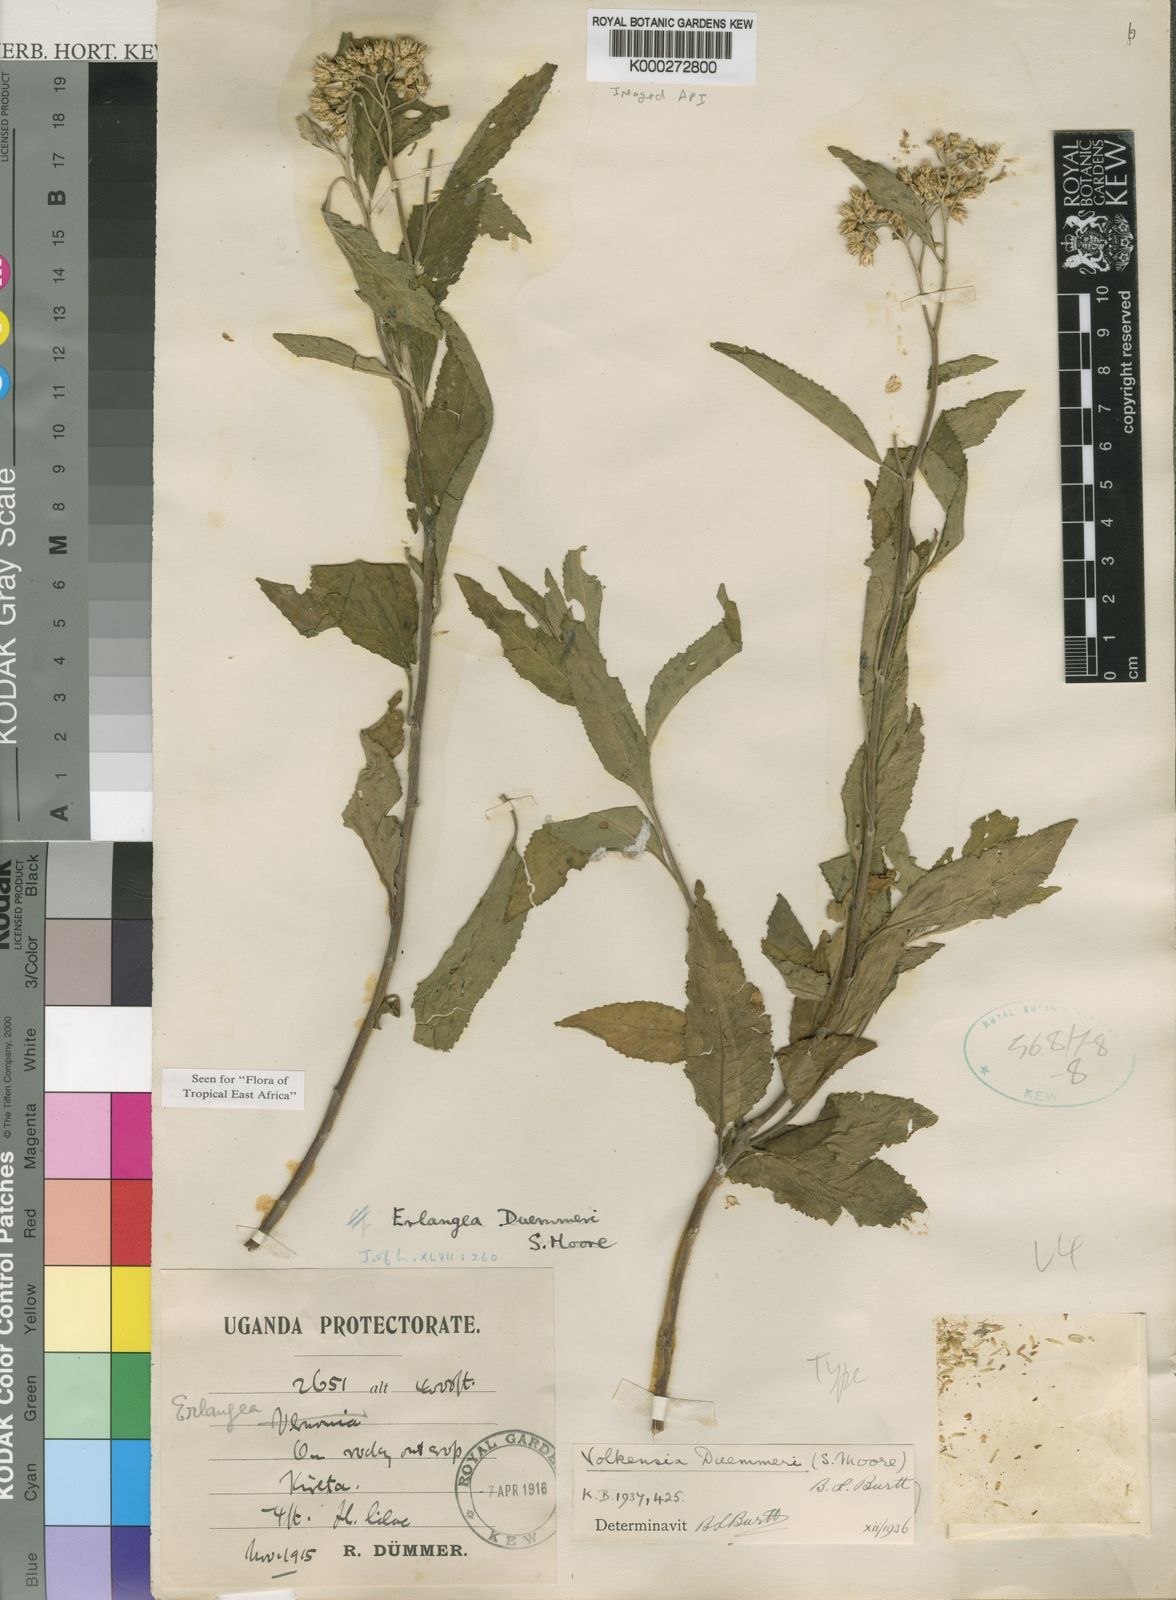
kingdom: Plantae
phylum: Tracheophyta
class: Magnoliopsida
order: Asterales
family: Asteraceae
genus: Bothriocline
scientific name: Bothriocline bagshawei
